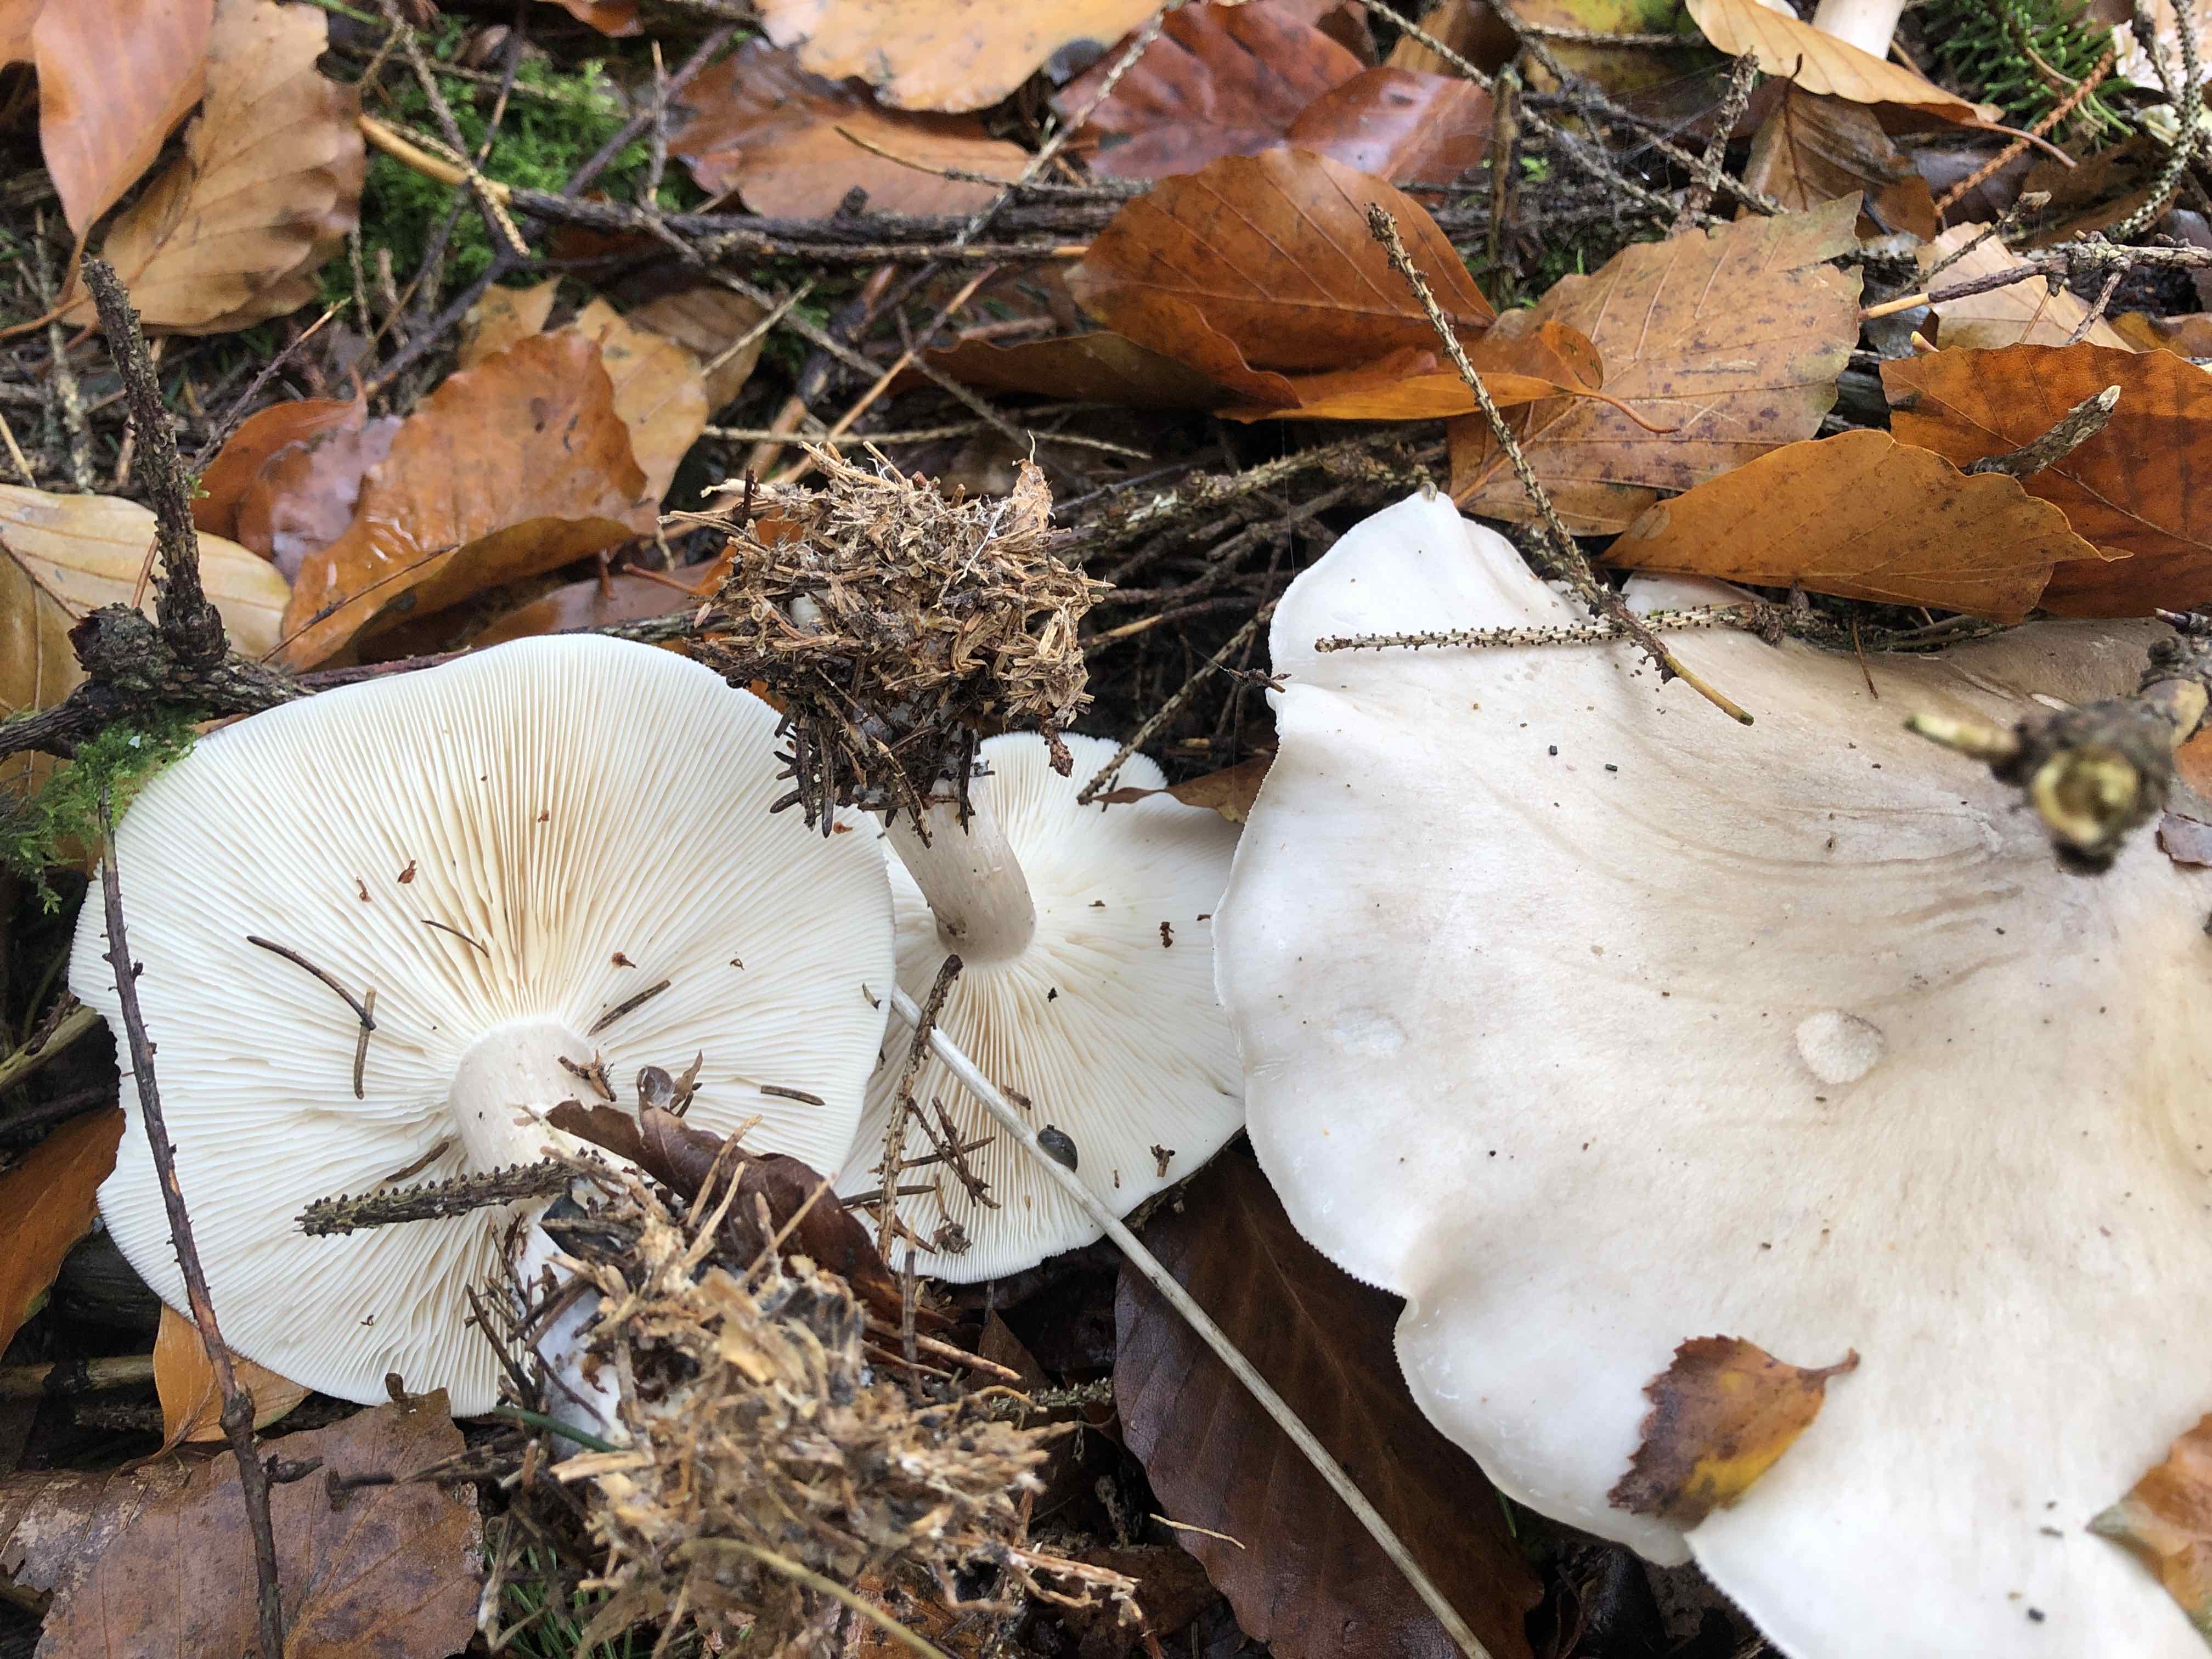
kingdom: Fungi
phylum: Basidiomycota
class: Agaricomycetes
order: Agaricales
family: Tricholomataceae
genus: Clitocybe
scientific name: Clitocybe nebularis
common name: tåge-tragthat
